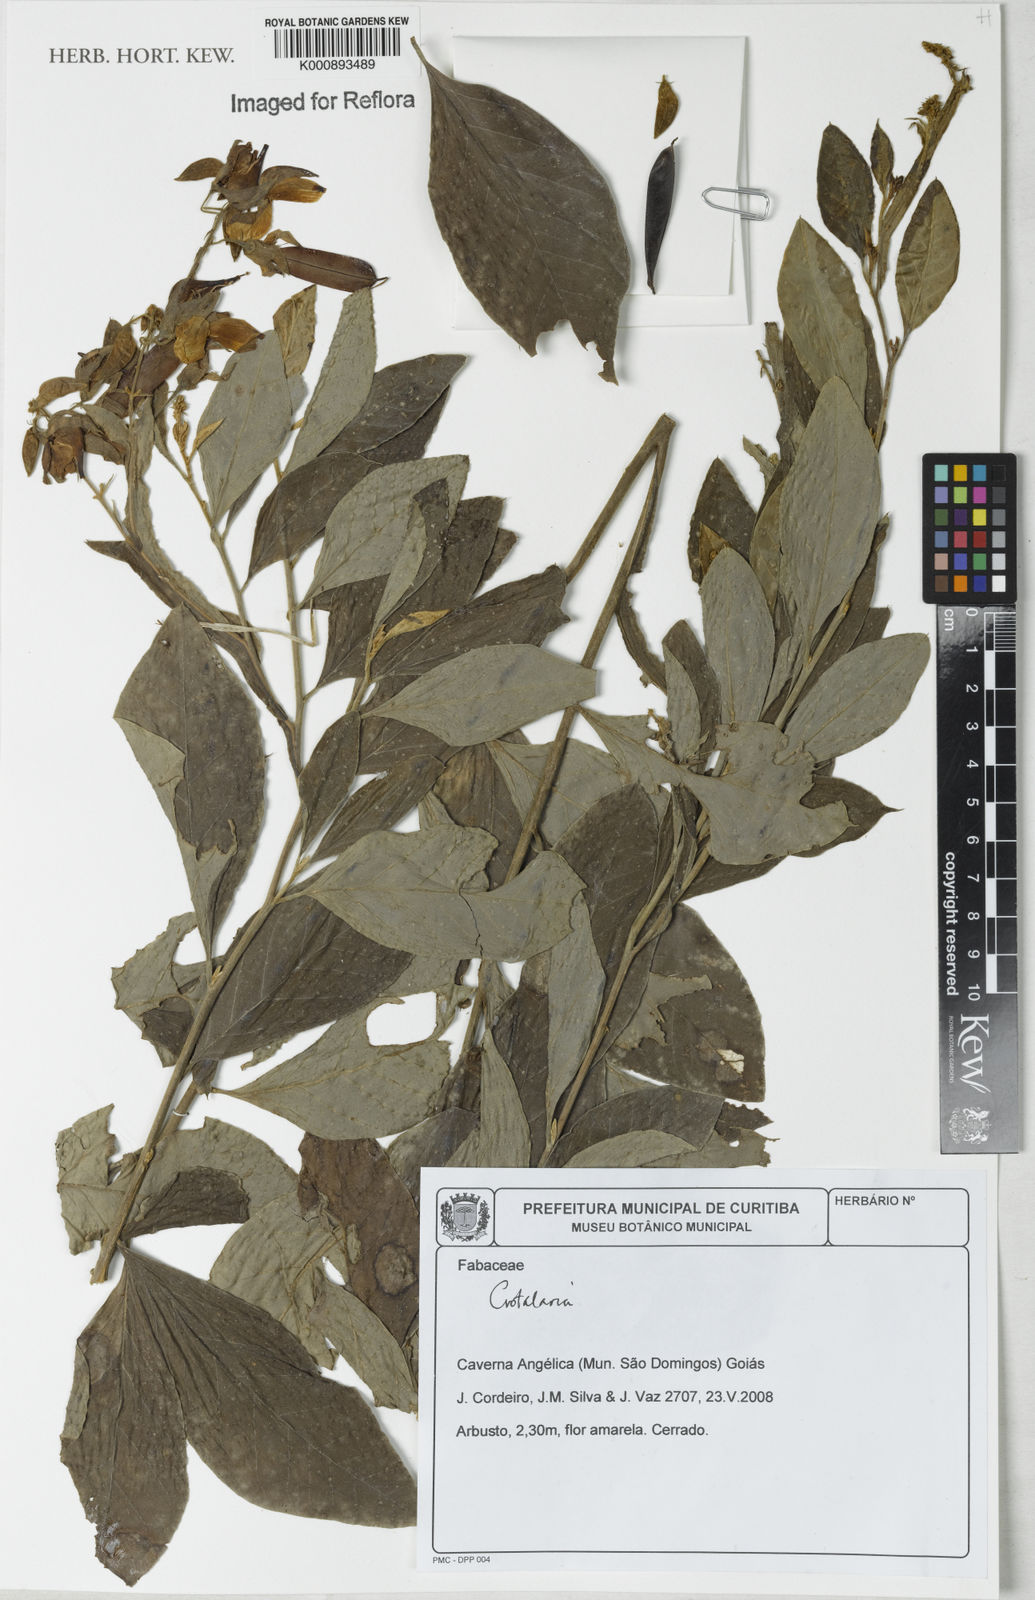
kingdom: Plantae
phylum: Tracheophyta
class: Magnoliopsida
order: Fabales
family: Fabaceae
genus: Crotalaria
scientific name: Crotalaria breviflora
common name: Short-flower crotalaria
